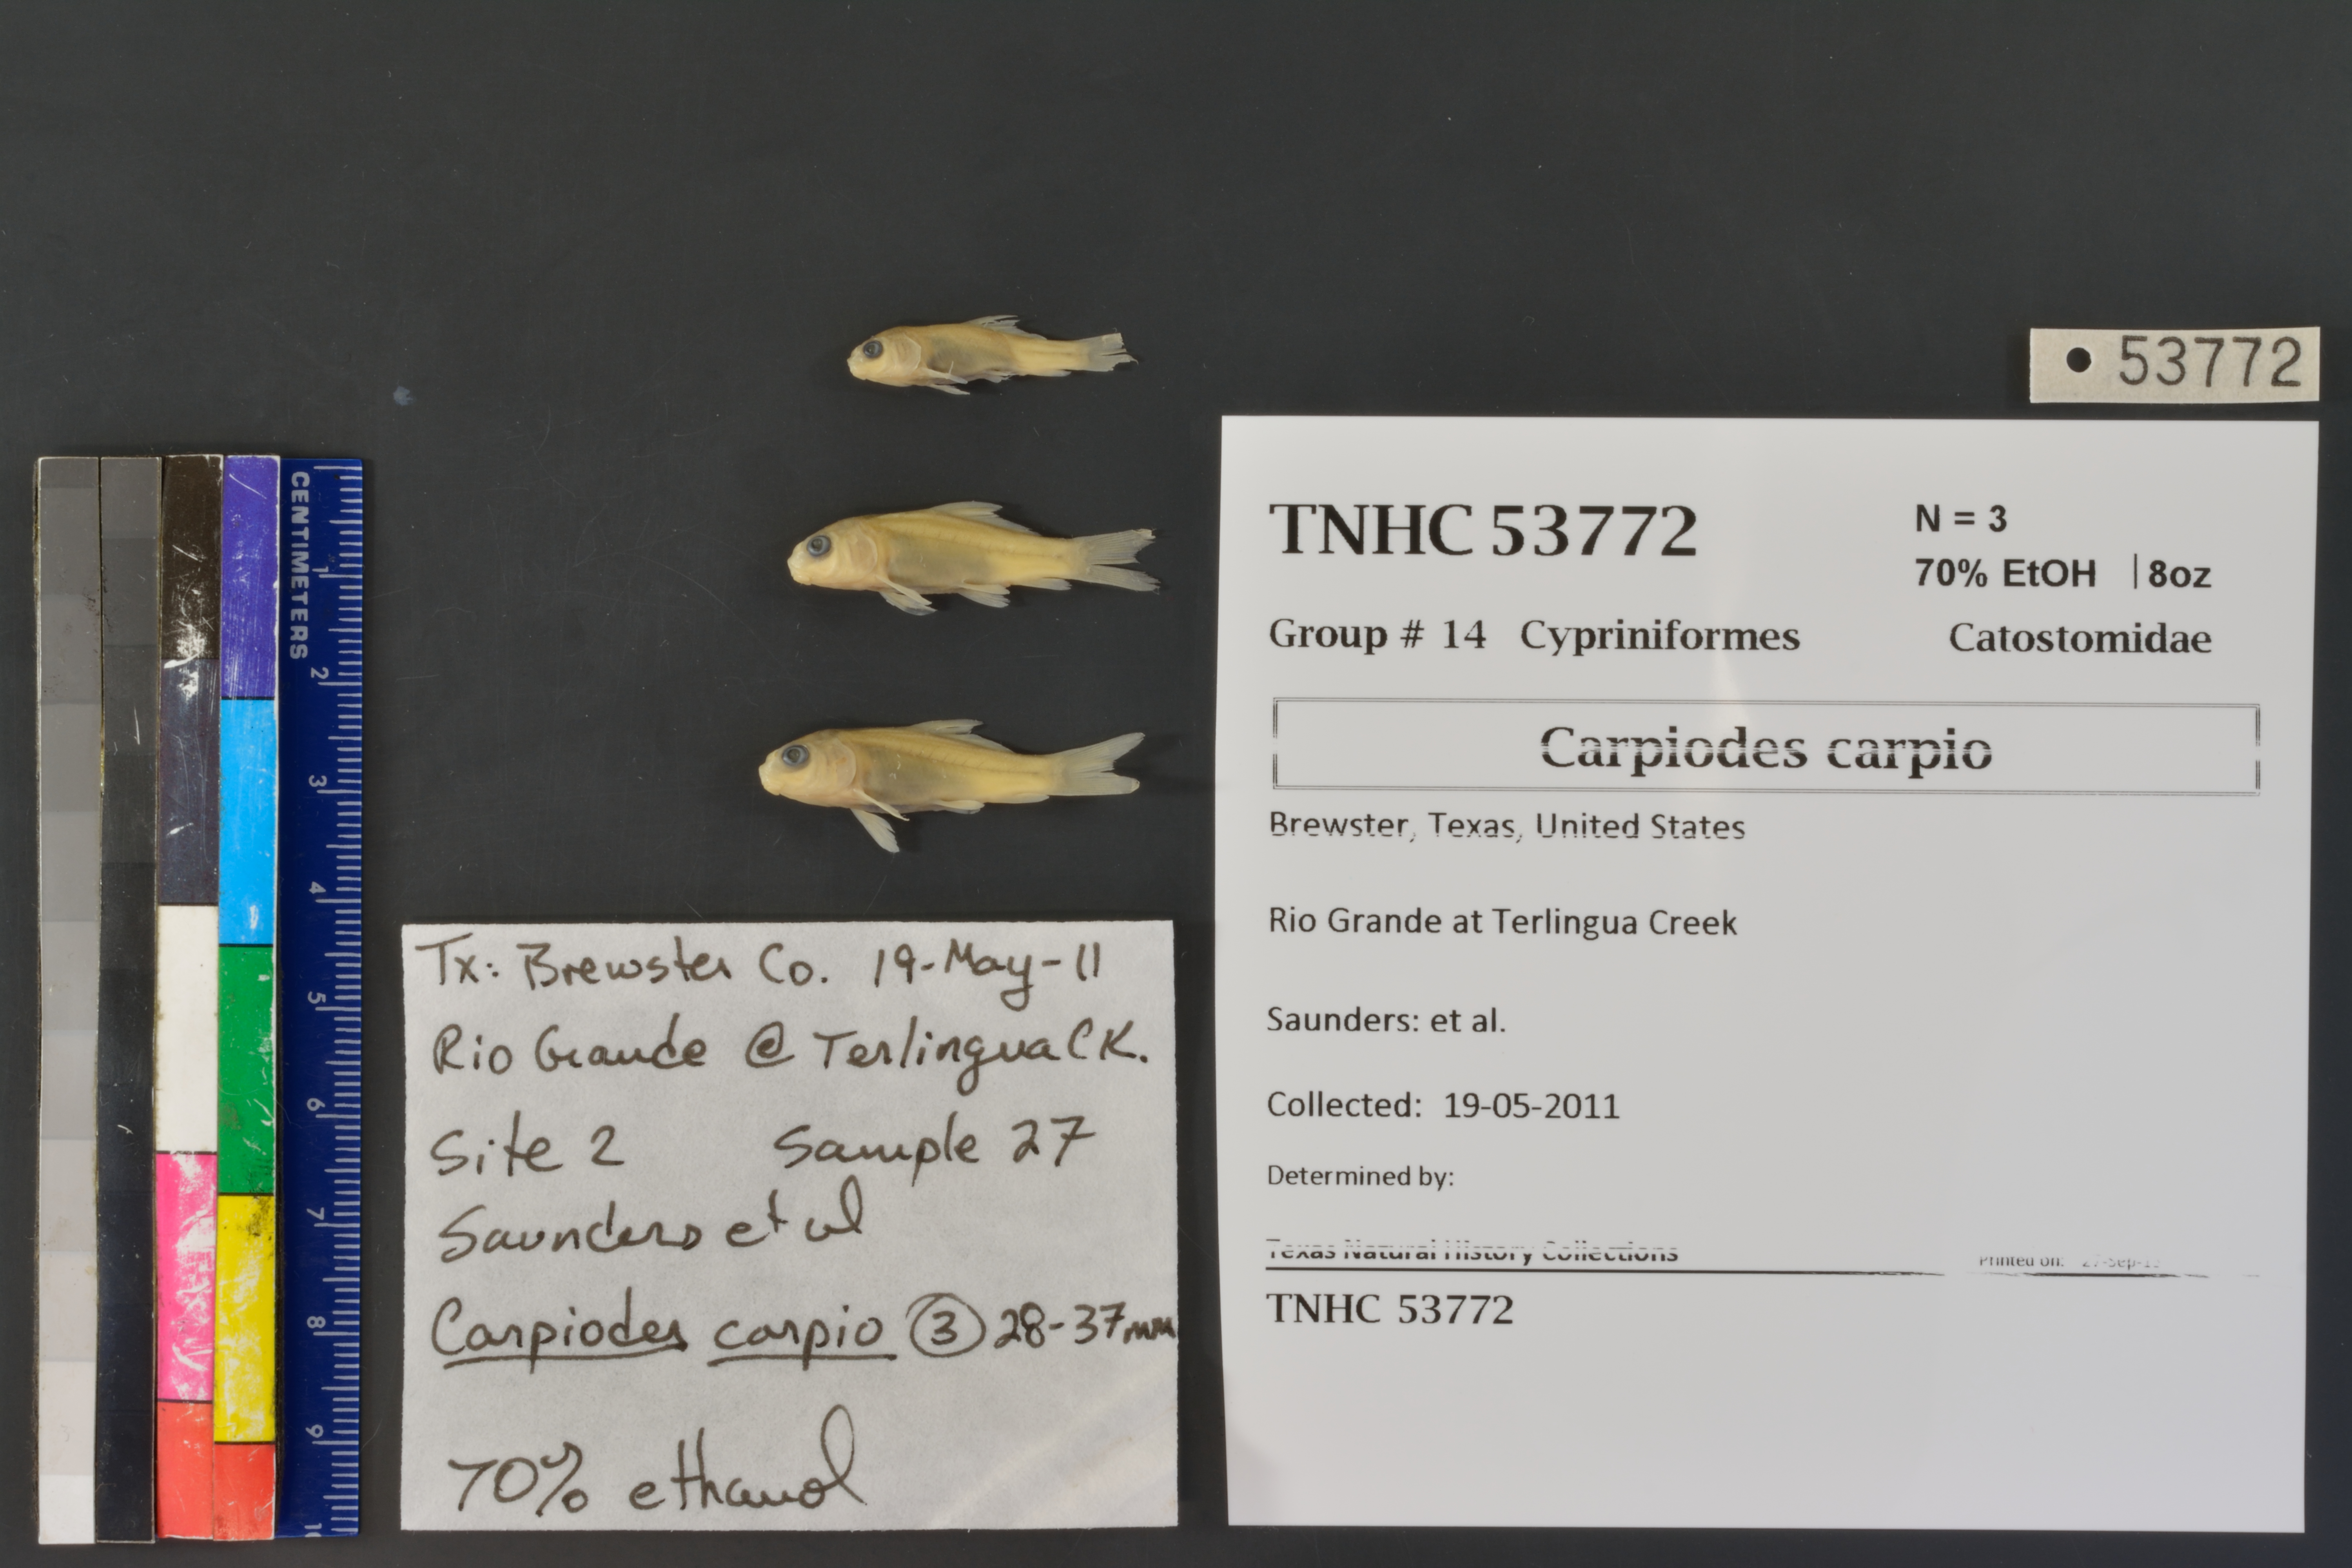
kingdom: Animalia
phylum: Chordata
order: Cypriniformes
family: Catostomidae
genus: Carpiodes
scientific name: Carpiodes carpio
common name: River carpsucker
